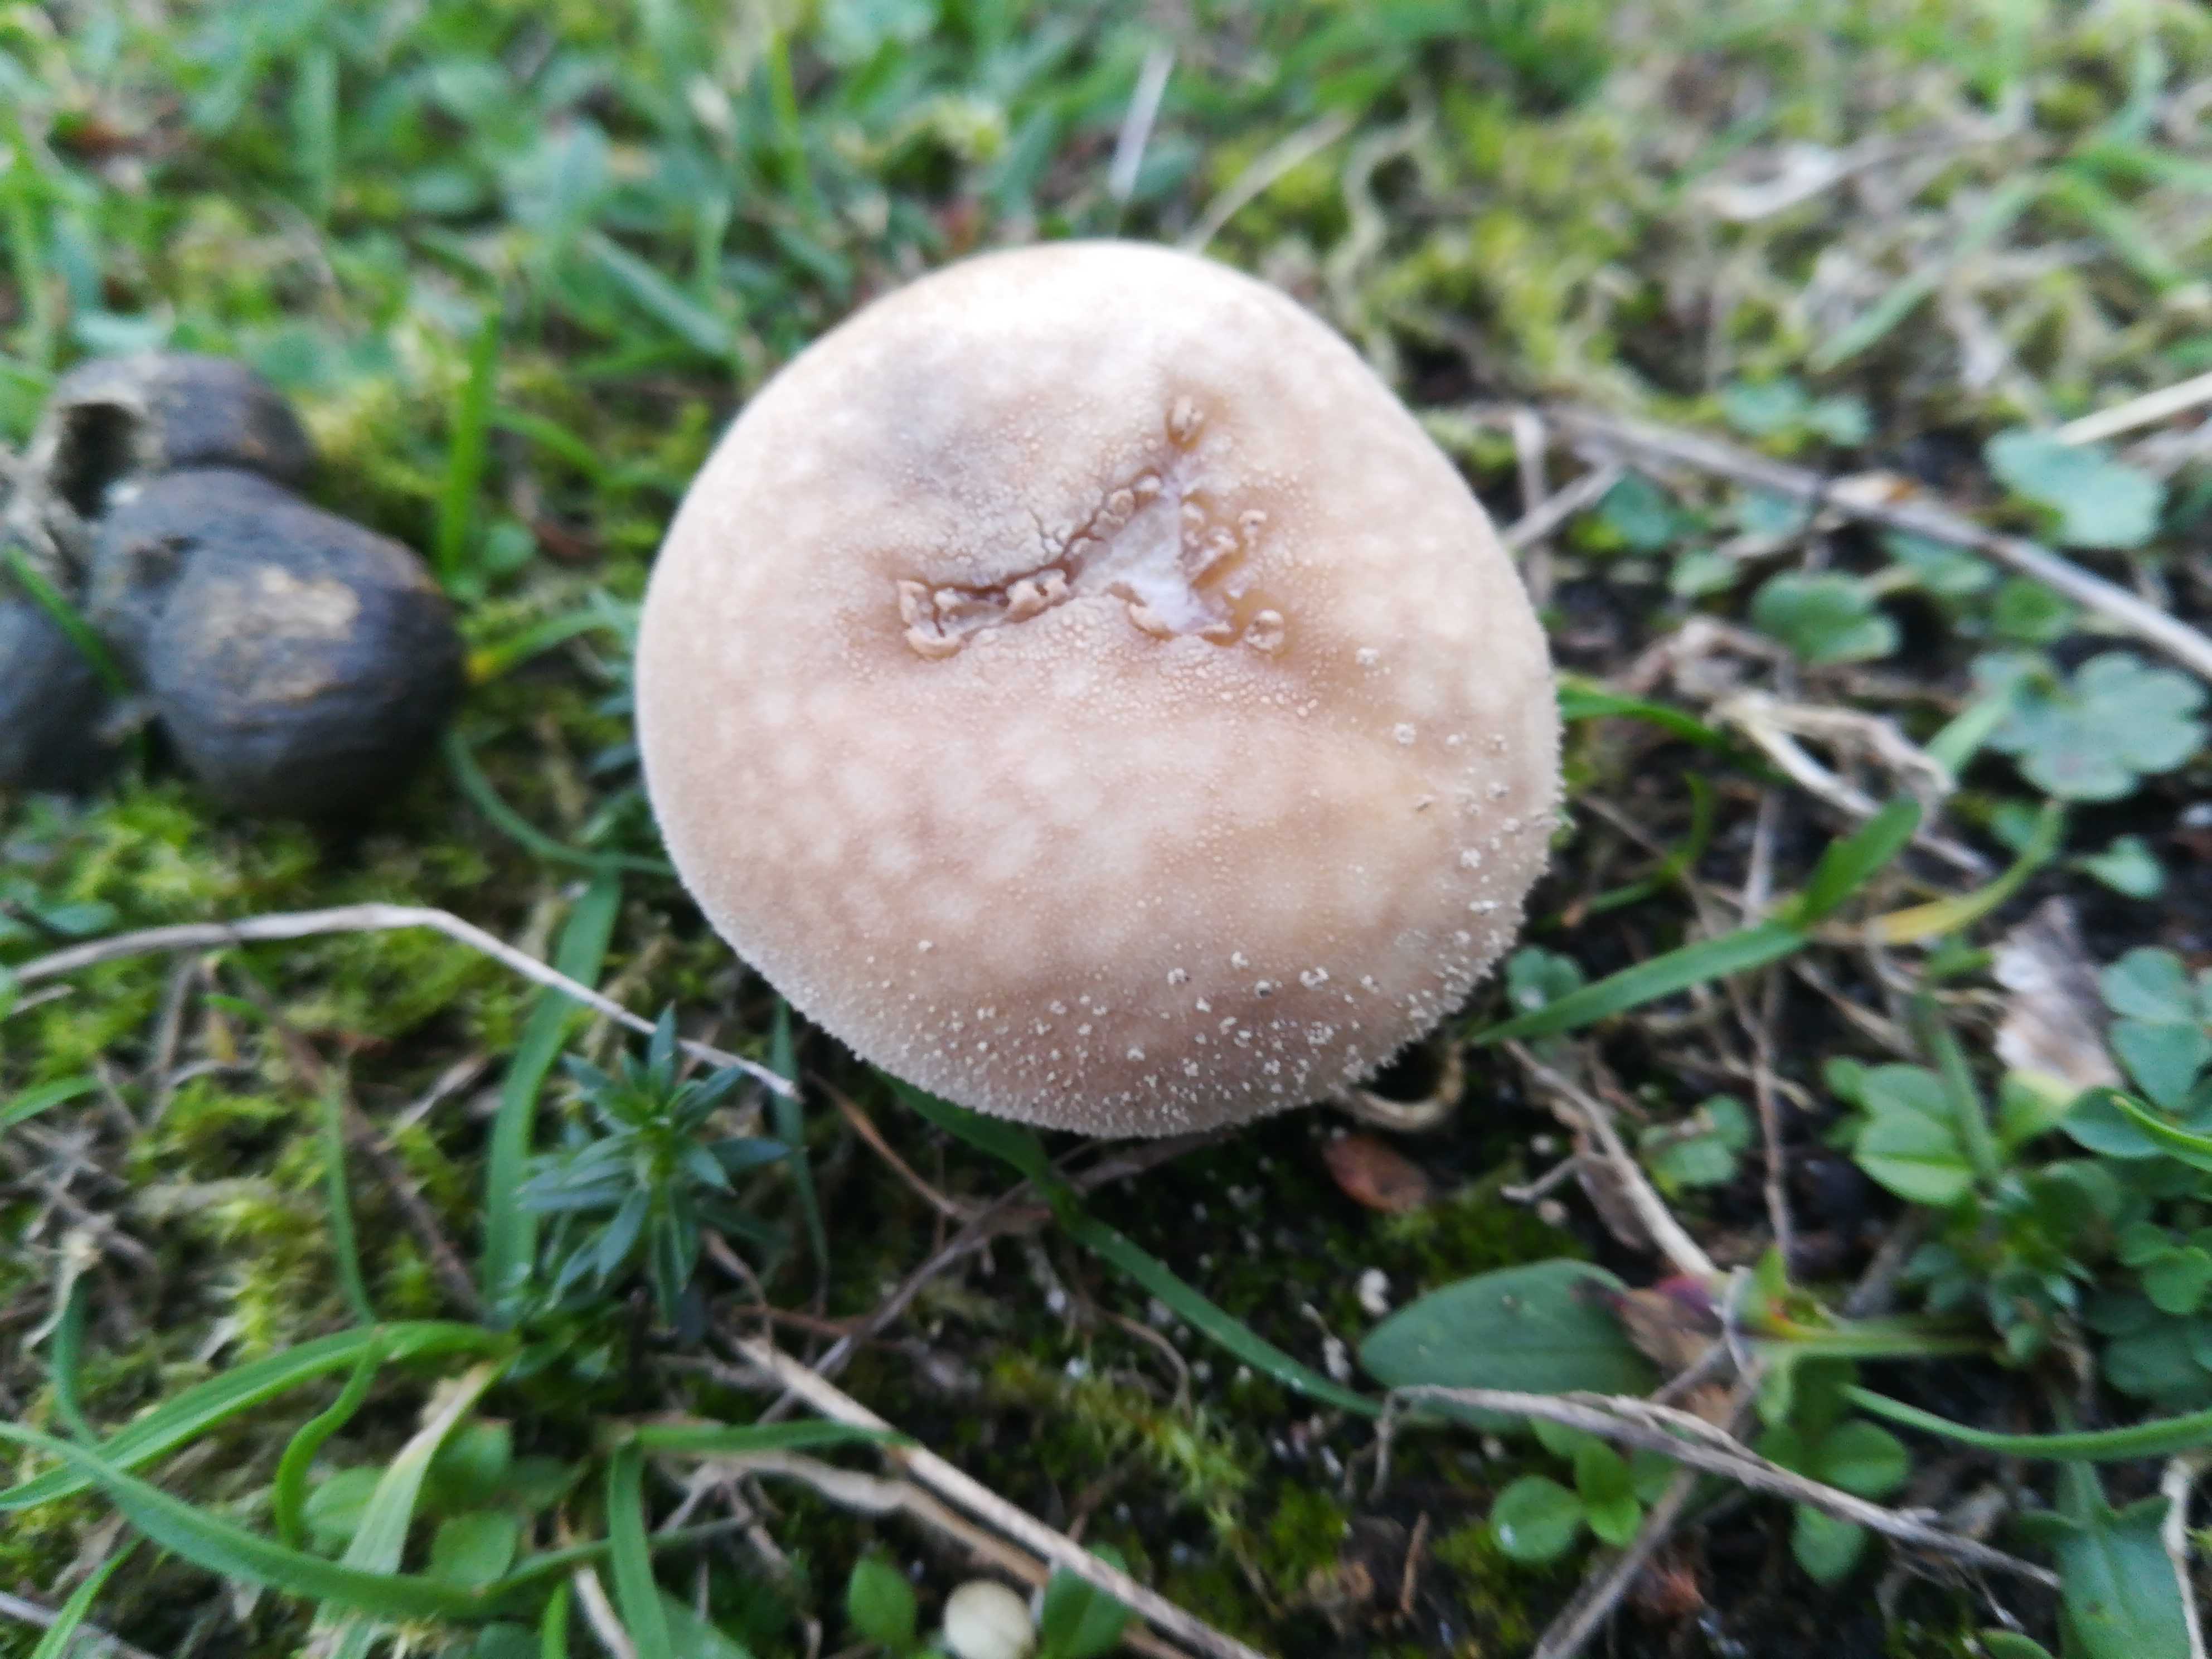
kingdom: Fungi
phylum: Basidiomycota
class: Agaricomycetes
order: Agaricales
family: Agaricaceae
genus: Lycoperdon
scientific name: Lycoperdon
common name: støvbold
